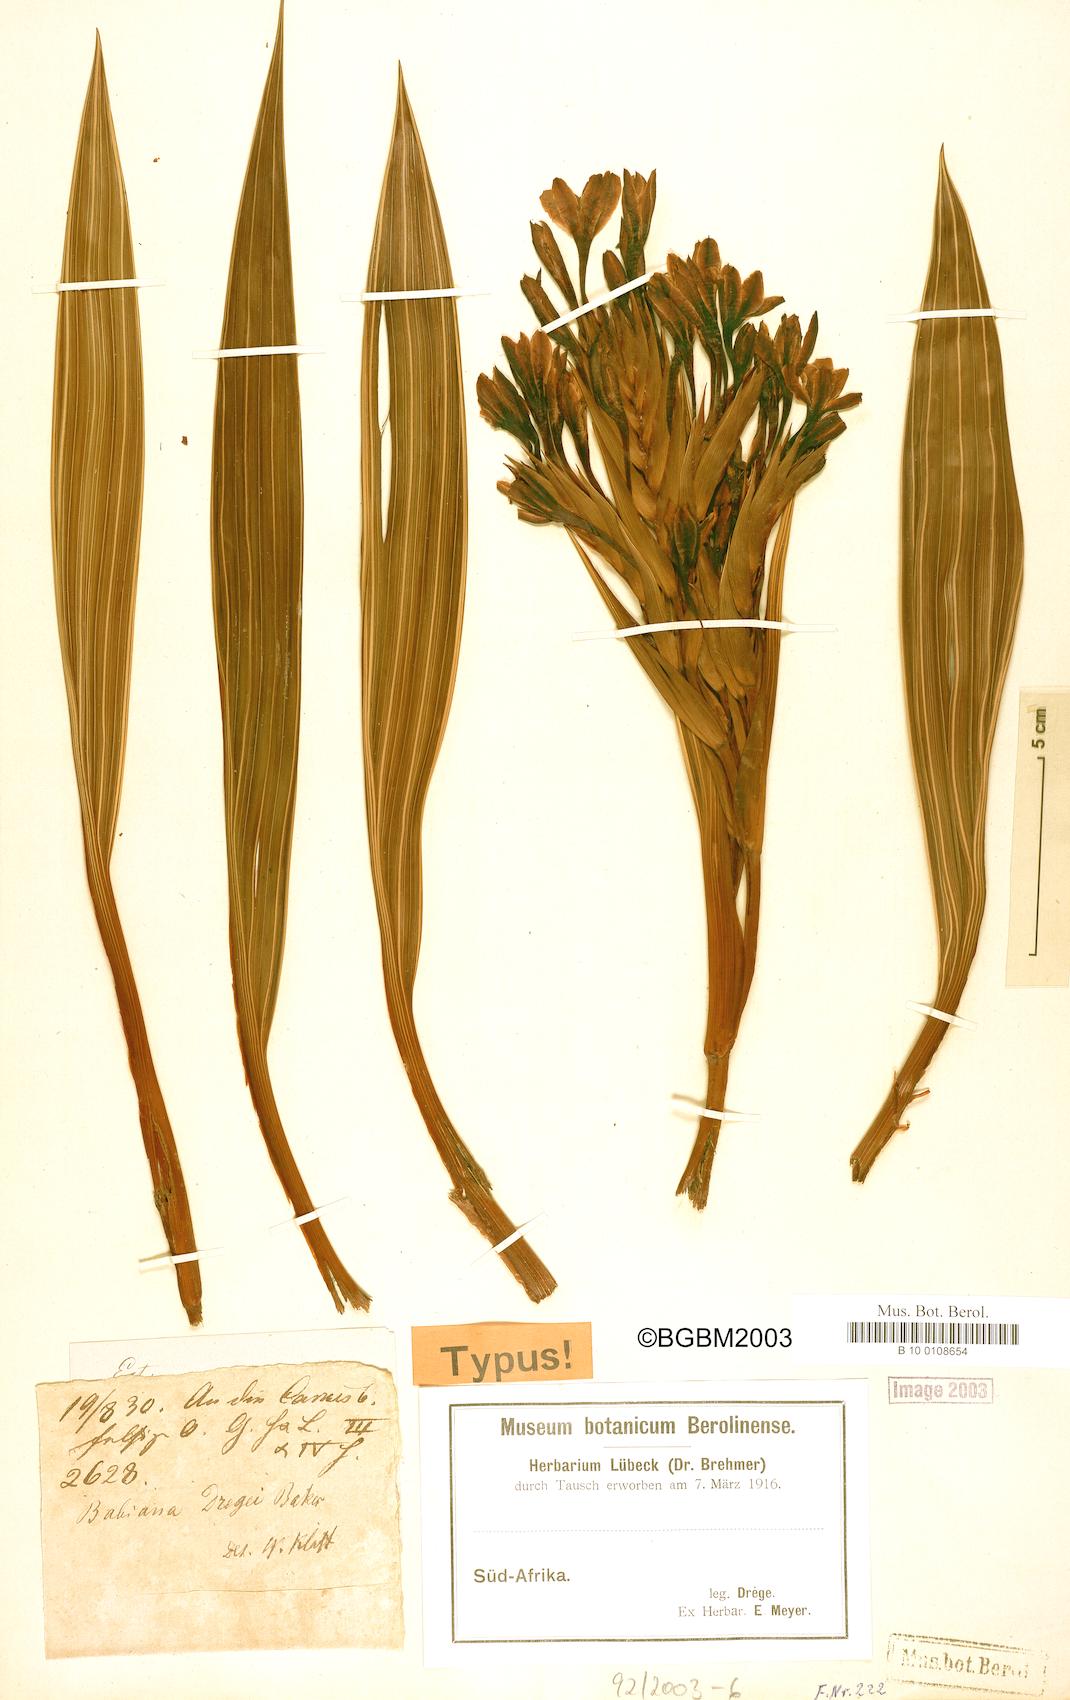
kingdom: Plantae
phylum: Tracheophyta
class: Liliopsida
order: Asparagales
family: Iridaceae
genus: Babiana
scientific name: Babiana dregei
